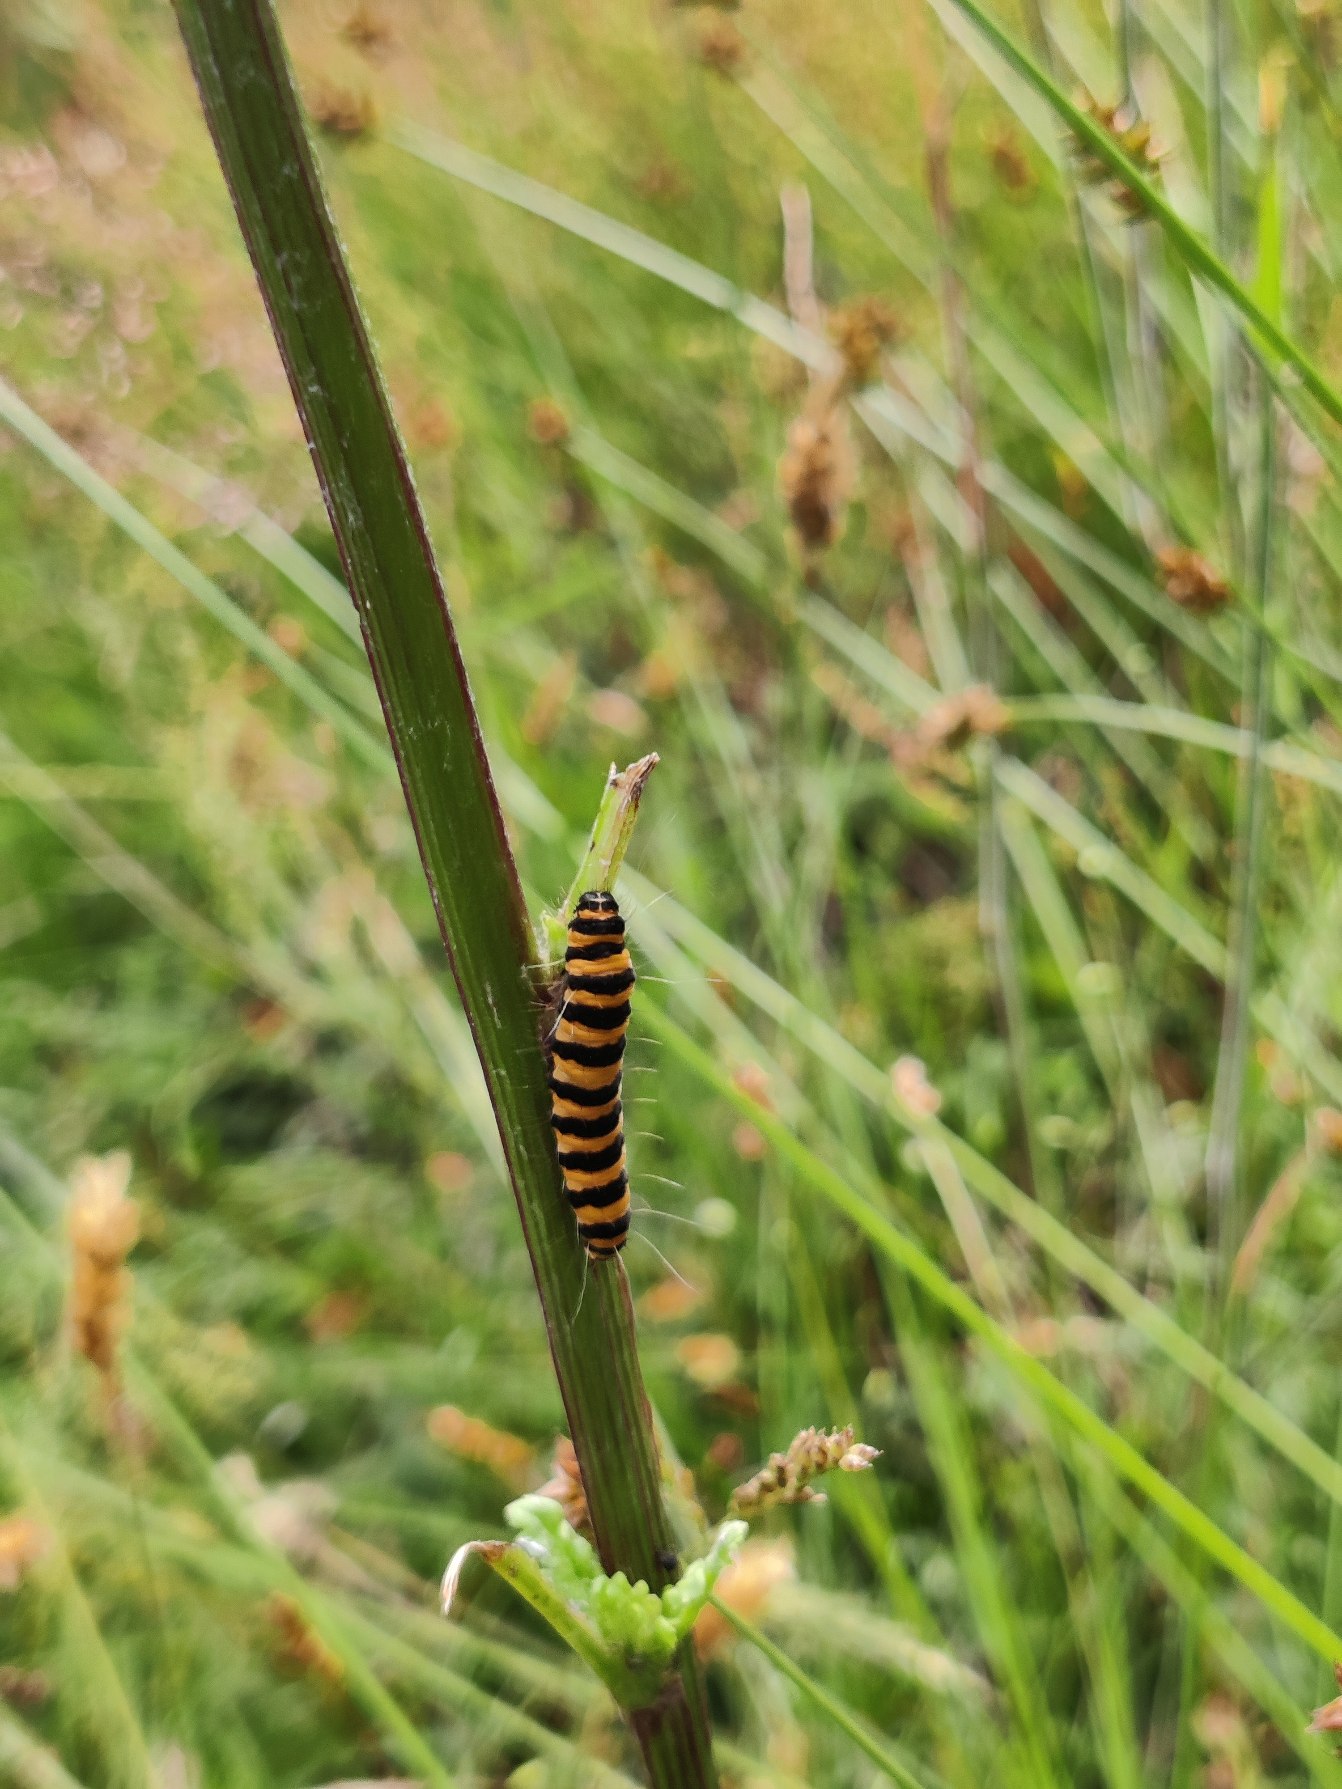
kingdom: Animalia
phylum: Arthropoda
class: Insecta
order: Lepidoptera
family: Erebidae
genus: Tyria
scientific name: Tyria jacobaeae
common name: Blodplet
